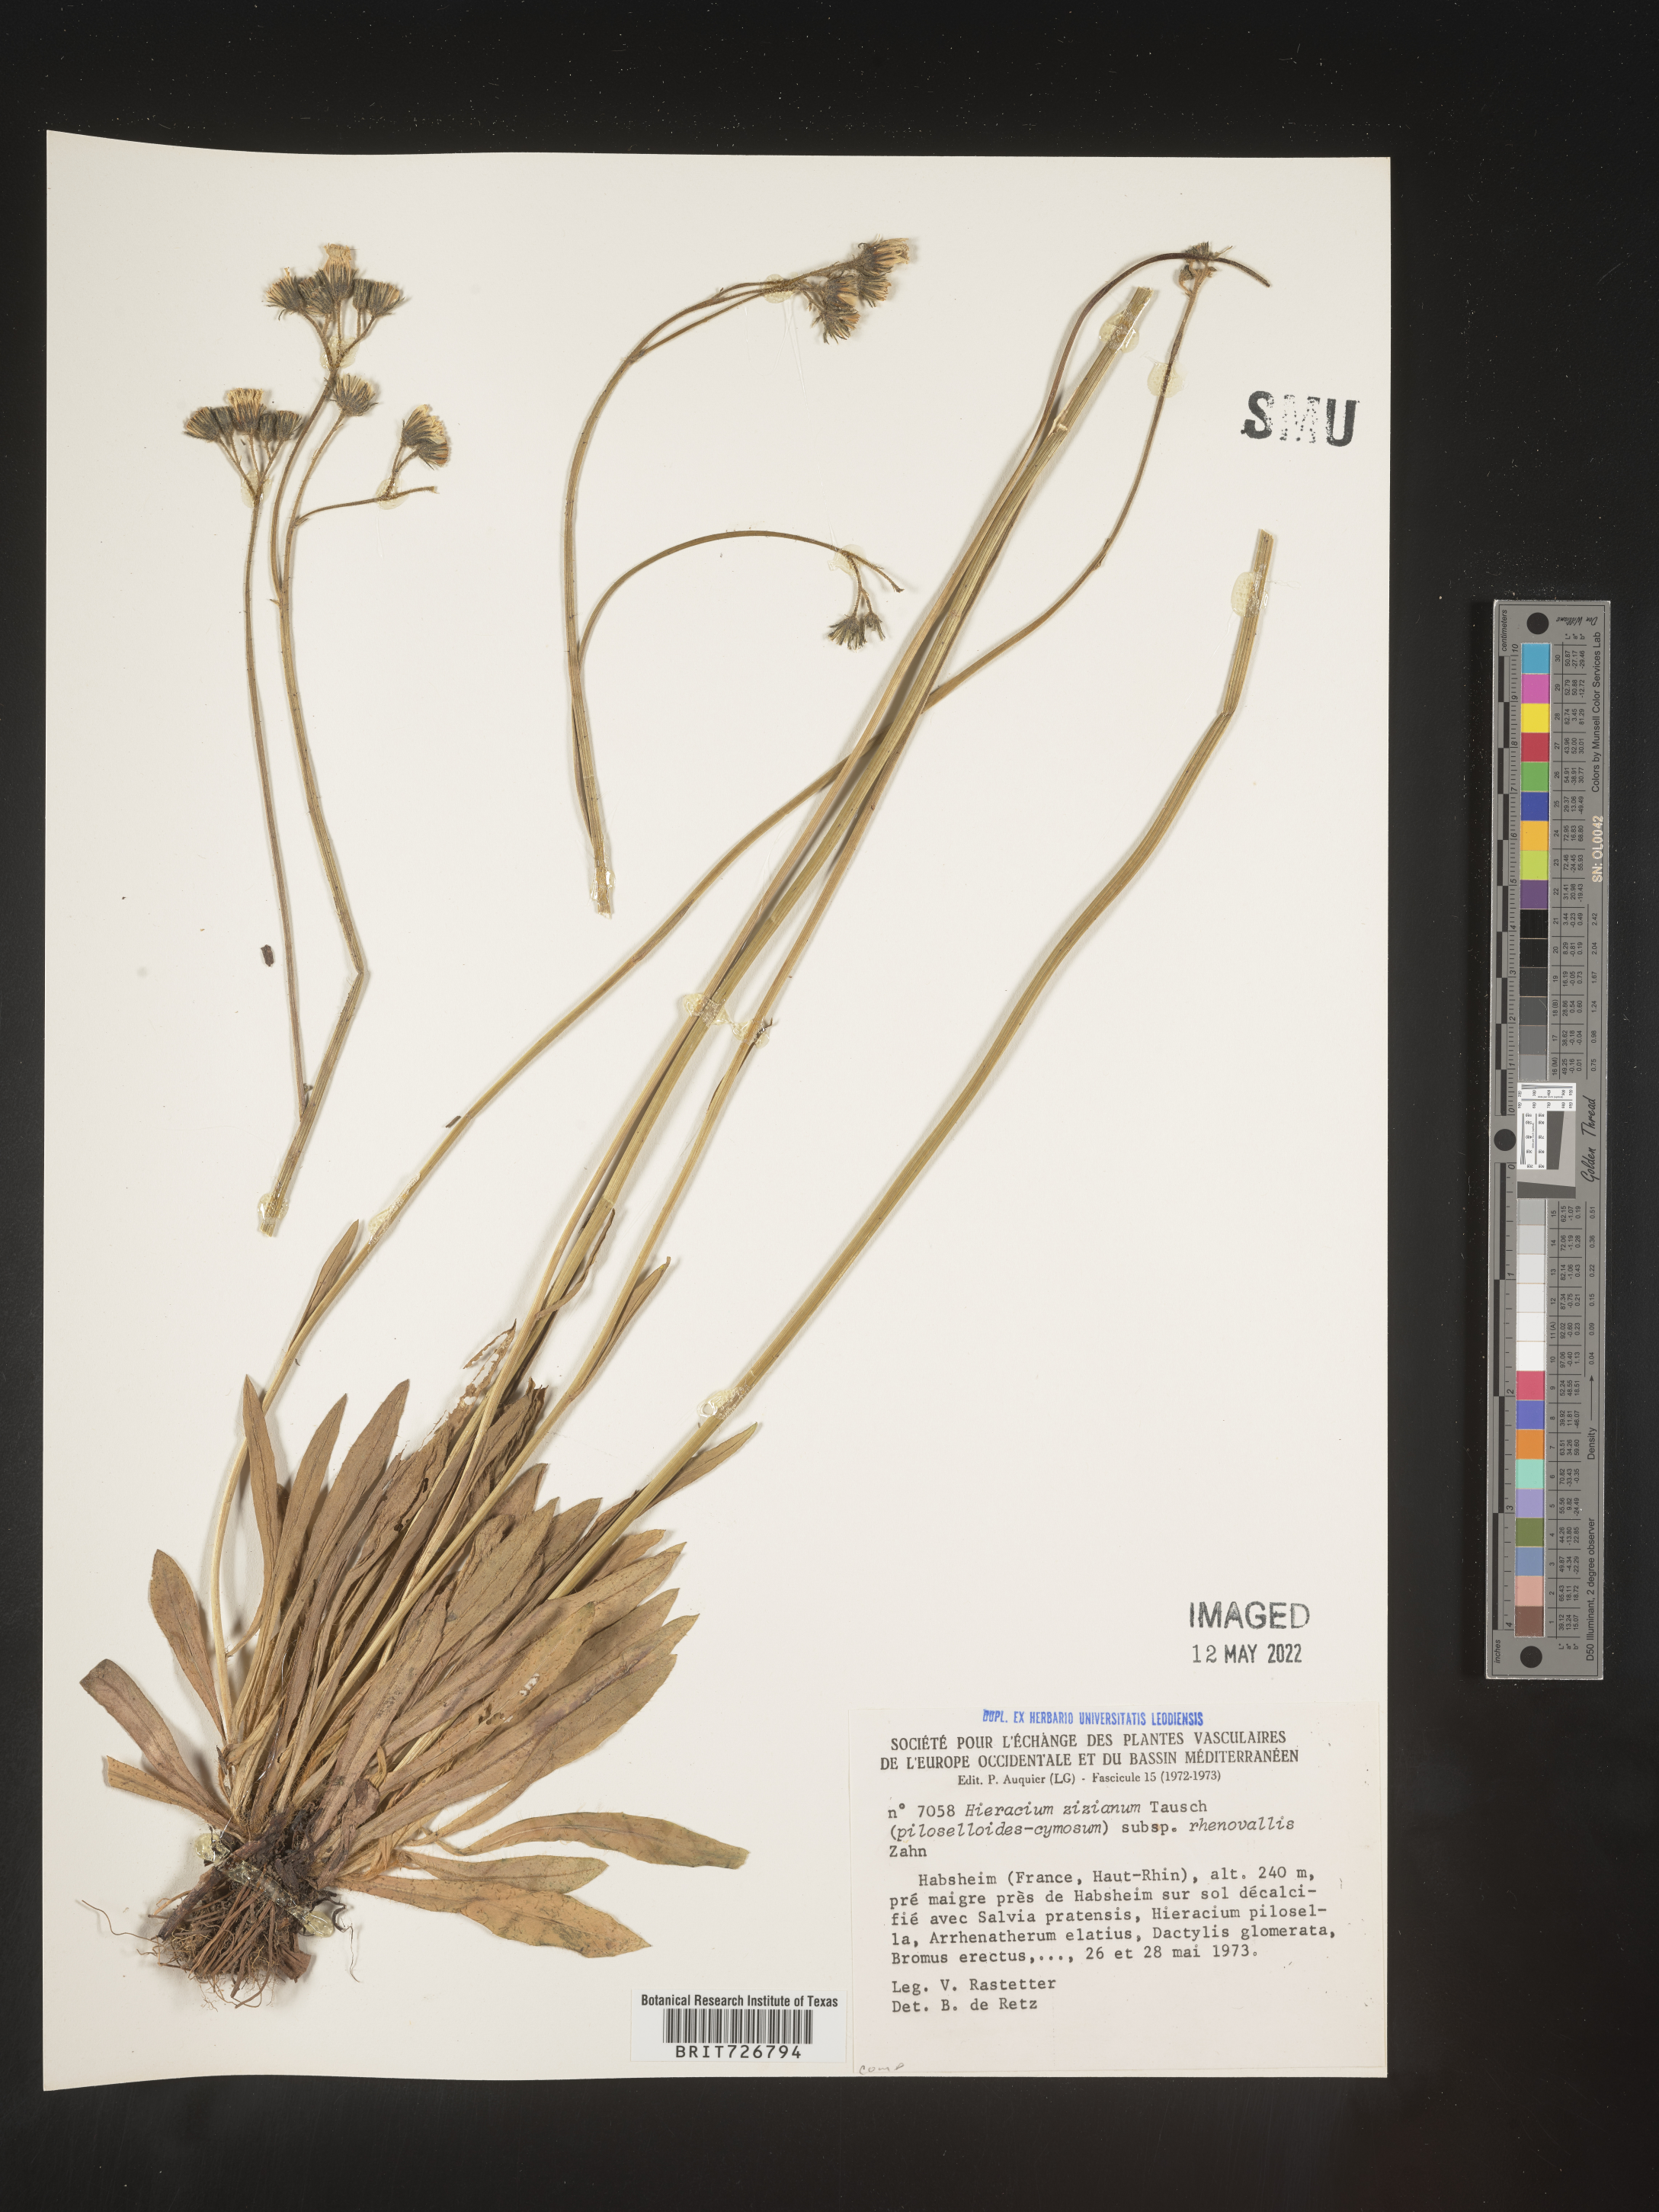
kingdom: Plantae
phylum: Tracheophyta
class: Magnoliopsida
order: Asterales
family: Asteraceae
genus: Hieracium
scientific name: Hieracium
